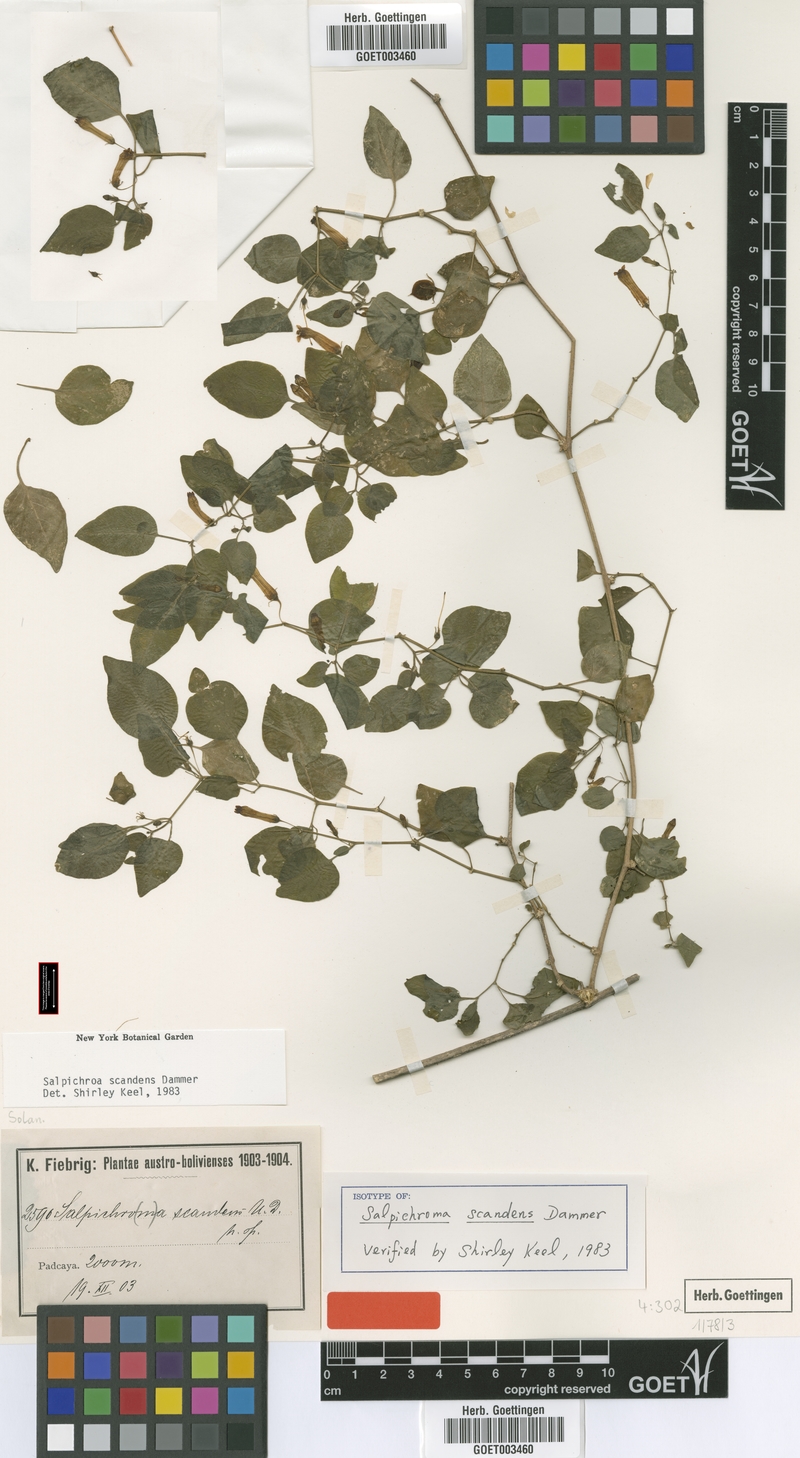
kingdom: Plantae
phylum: Tracheophyta
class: Magnoliopsida
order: Solanales
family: Solanaceae
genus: Salpichroa
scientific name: Salpichroa scandens
